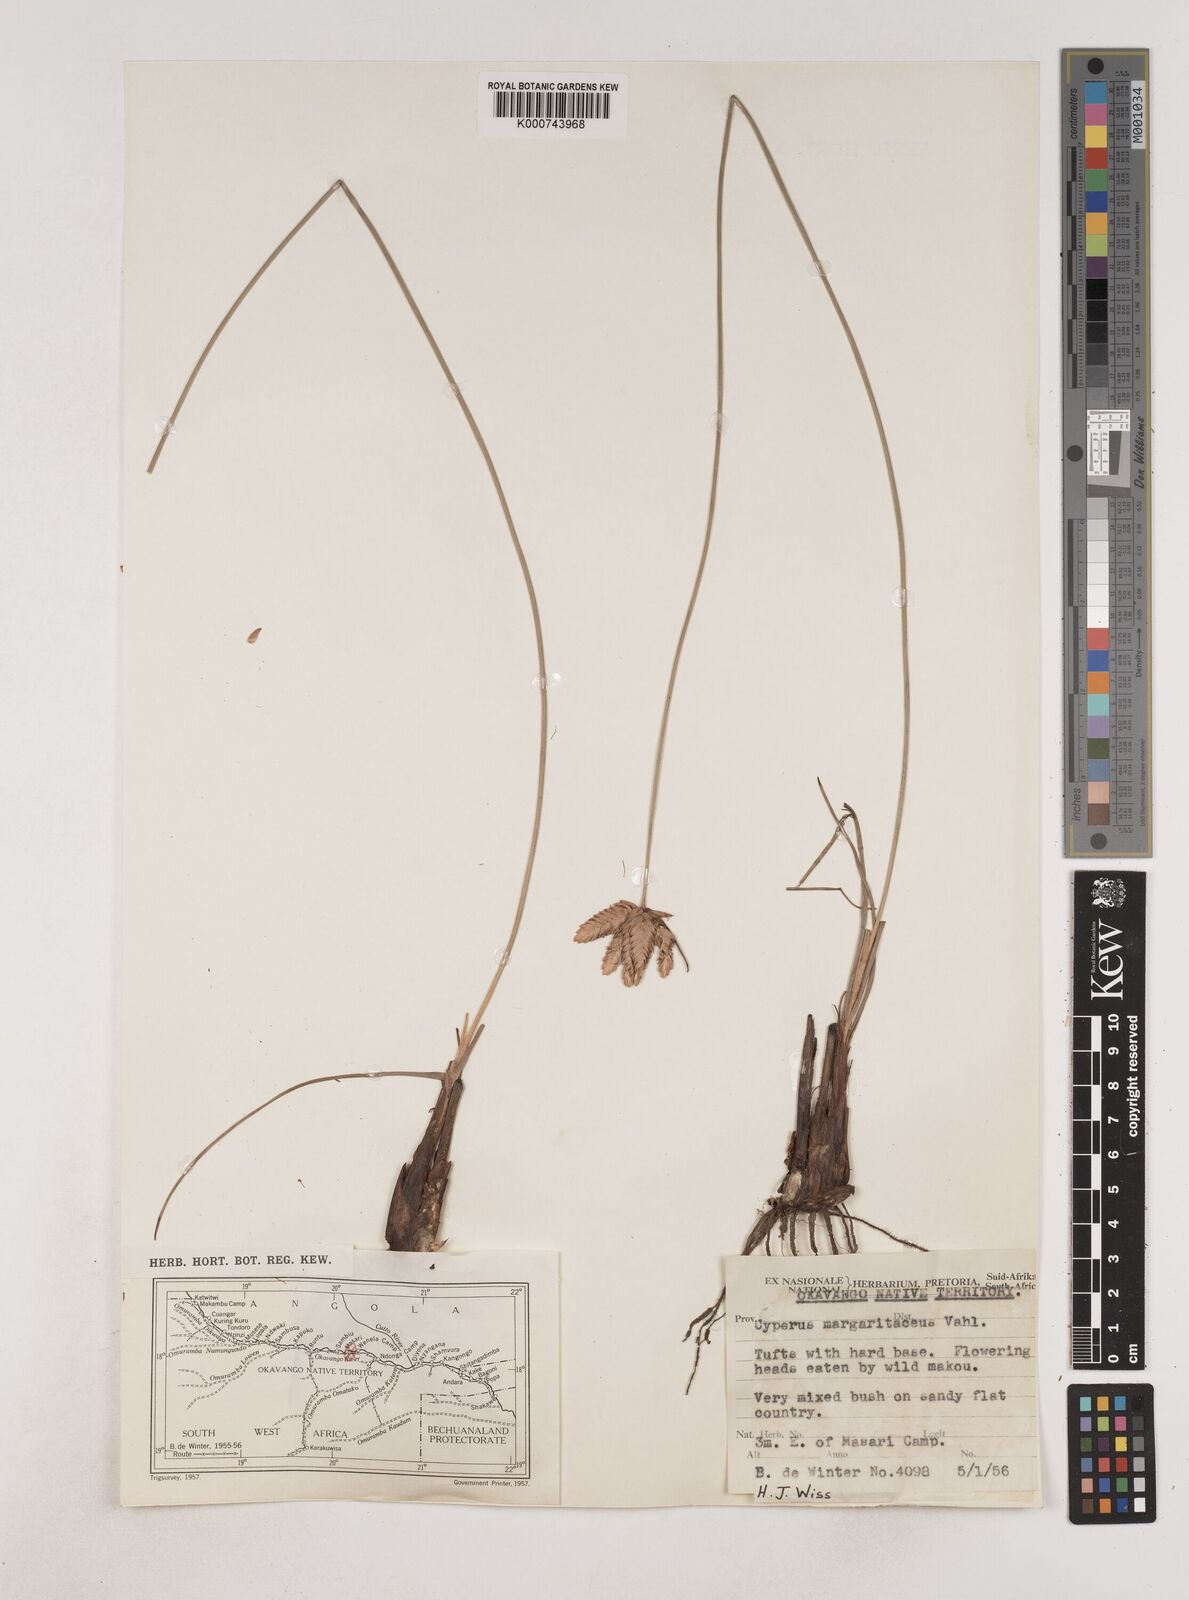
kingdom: Plantae
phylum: Tracheophyta
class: Liliopsida
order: Poales
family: Cyperaceae
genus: Cyperus
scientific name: Cyperus margaritaceus
